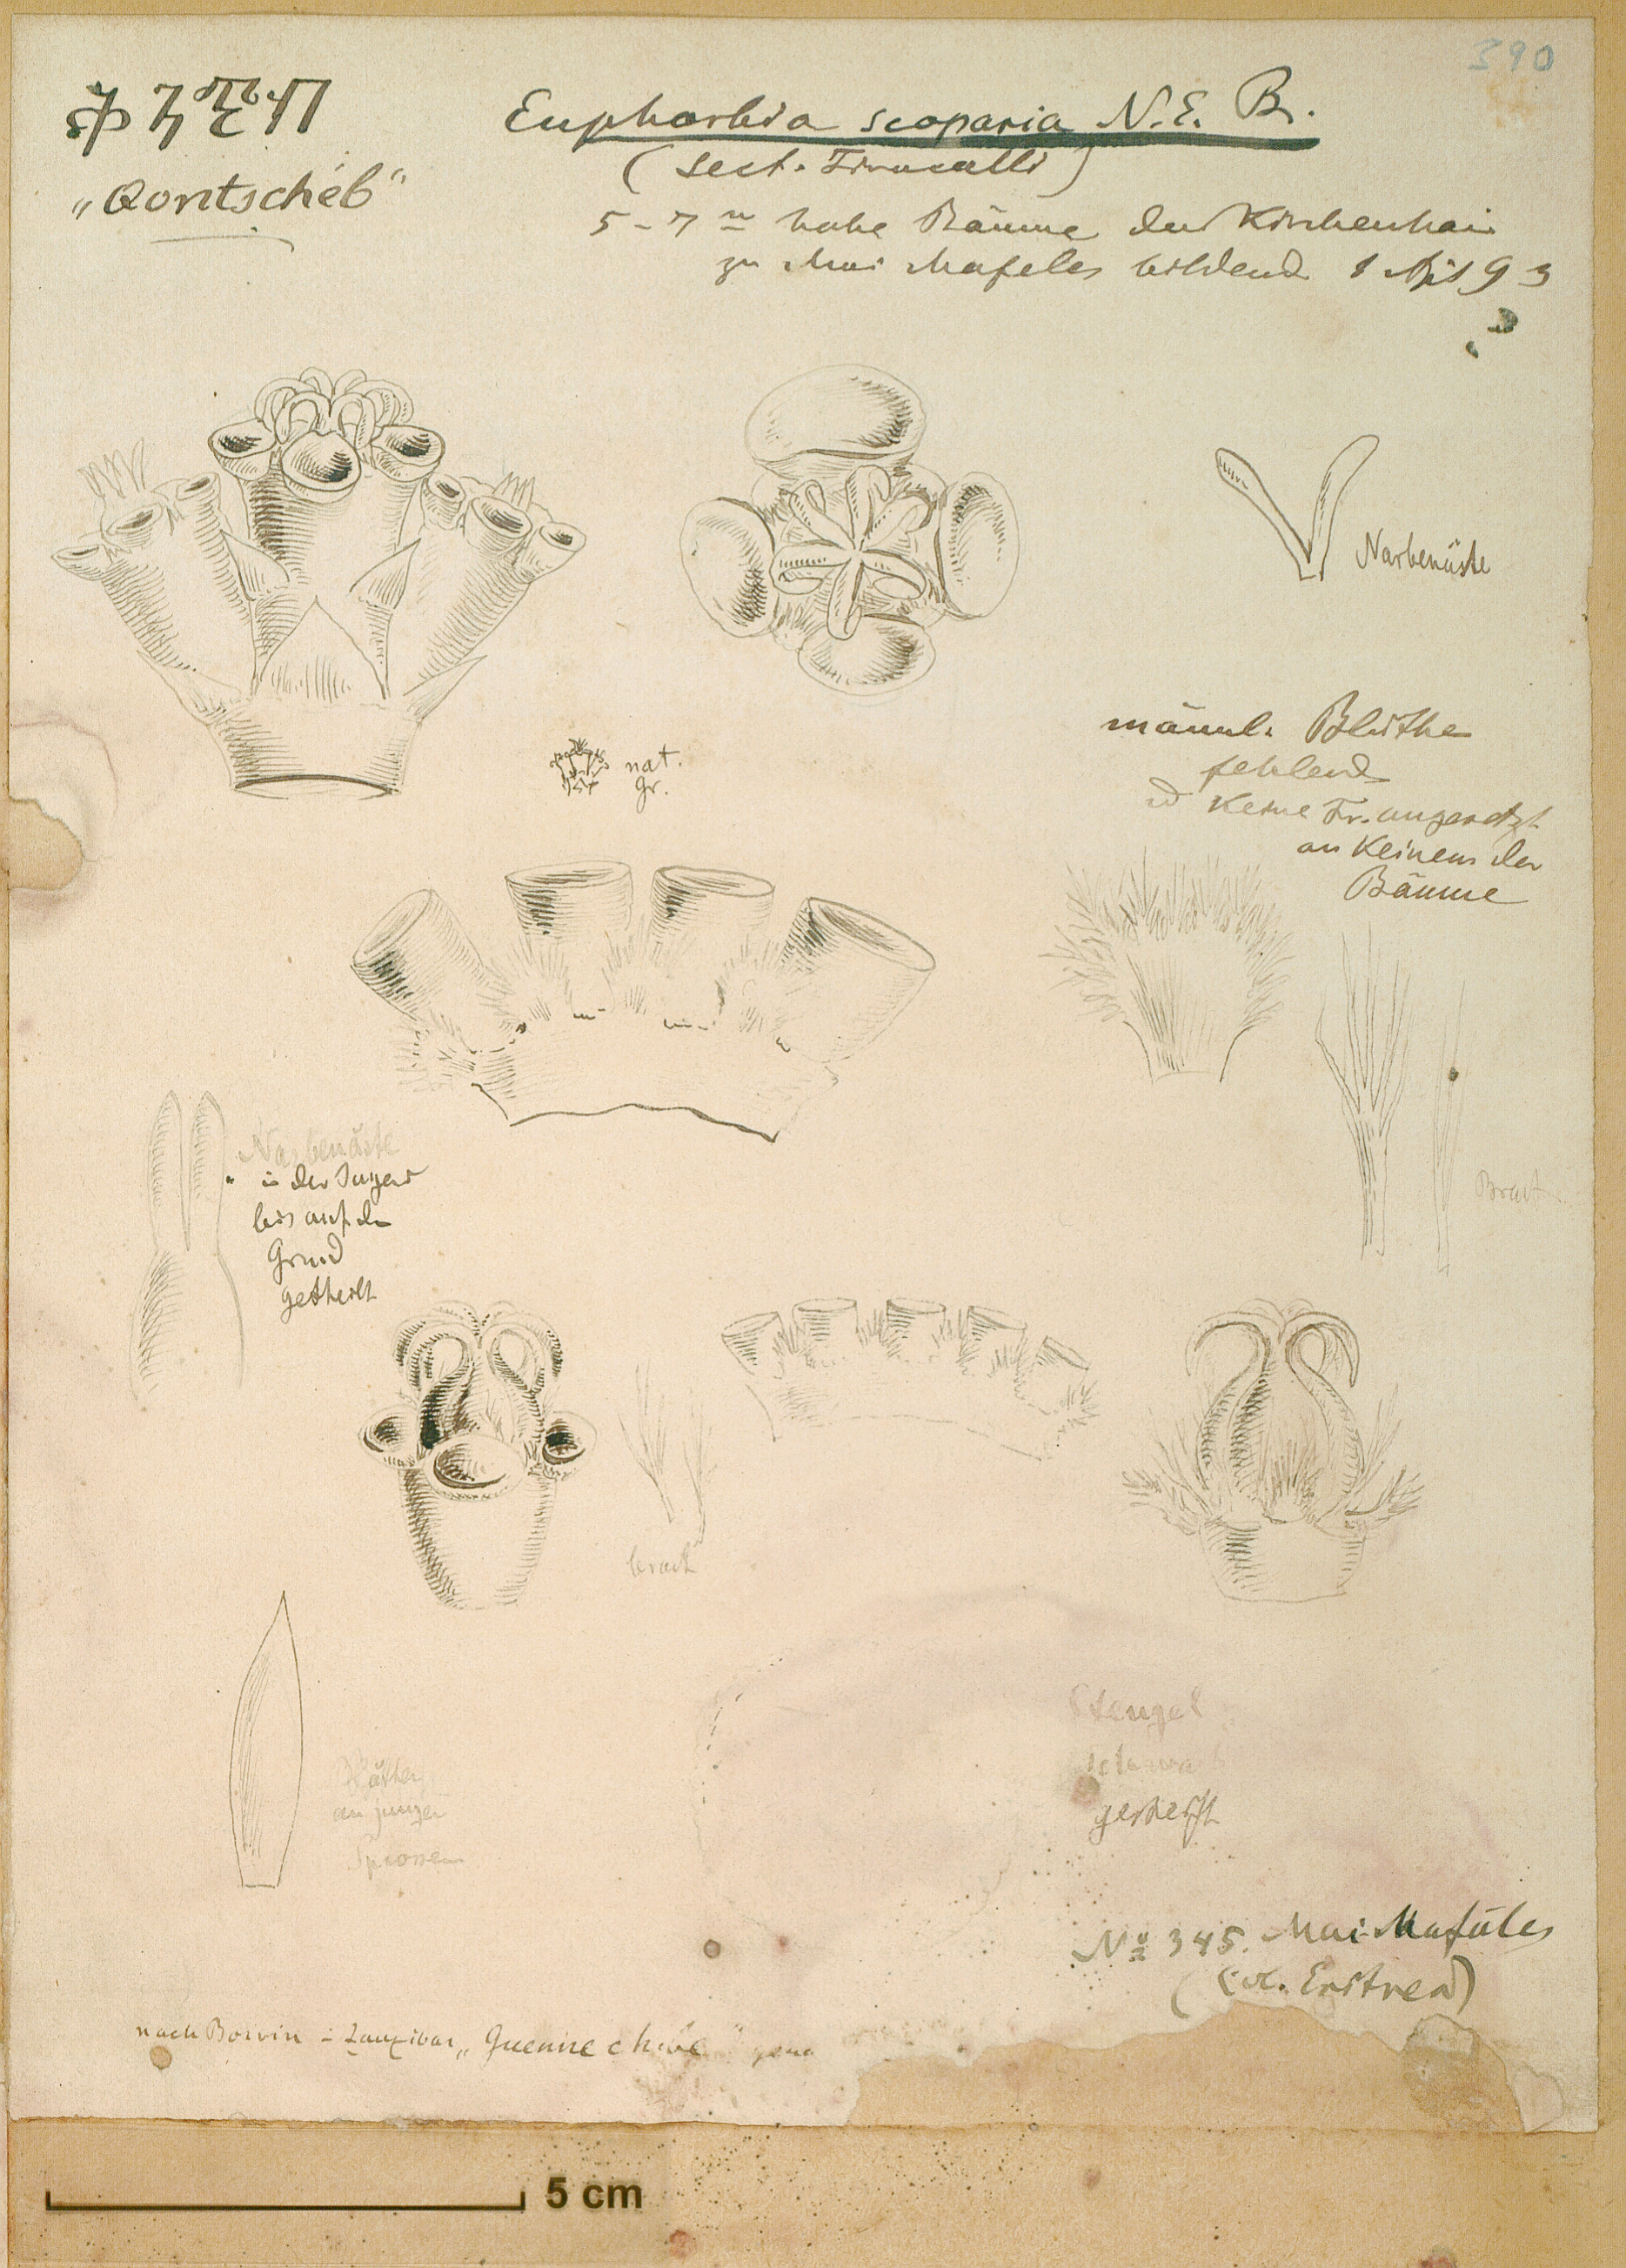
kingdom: Plantae
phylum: Tracheophyta
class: Magnoliopsida
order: Malpighiales
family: Euphorbiaceae
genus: Euphorbia
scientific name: Euphorbia tirucalli
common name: Indiantree spurge
